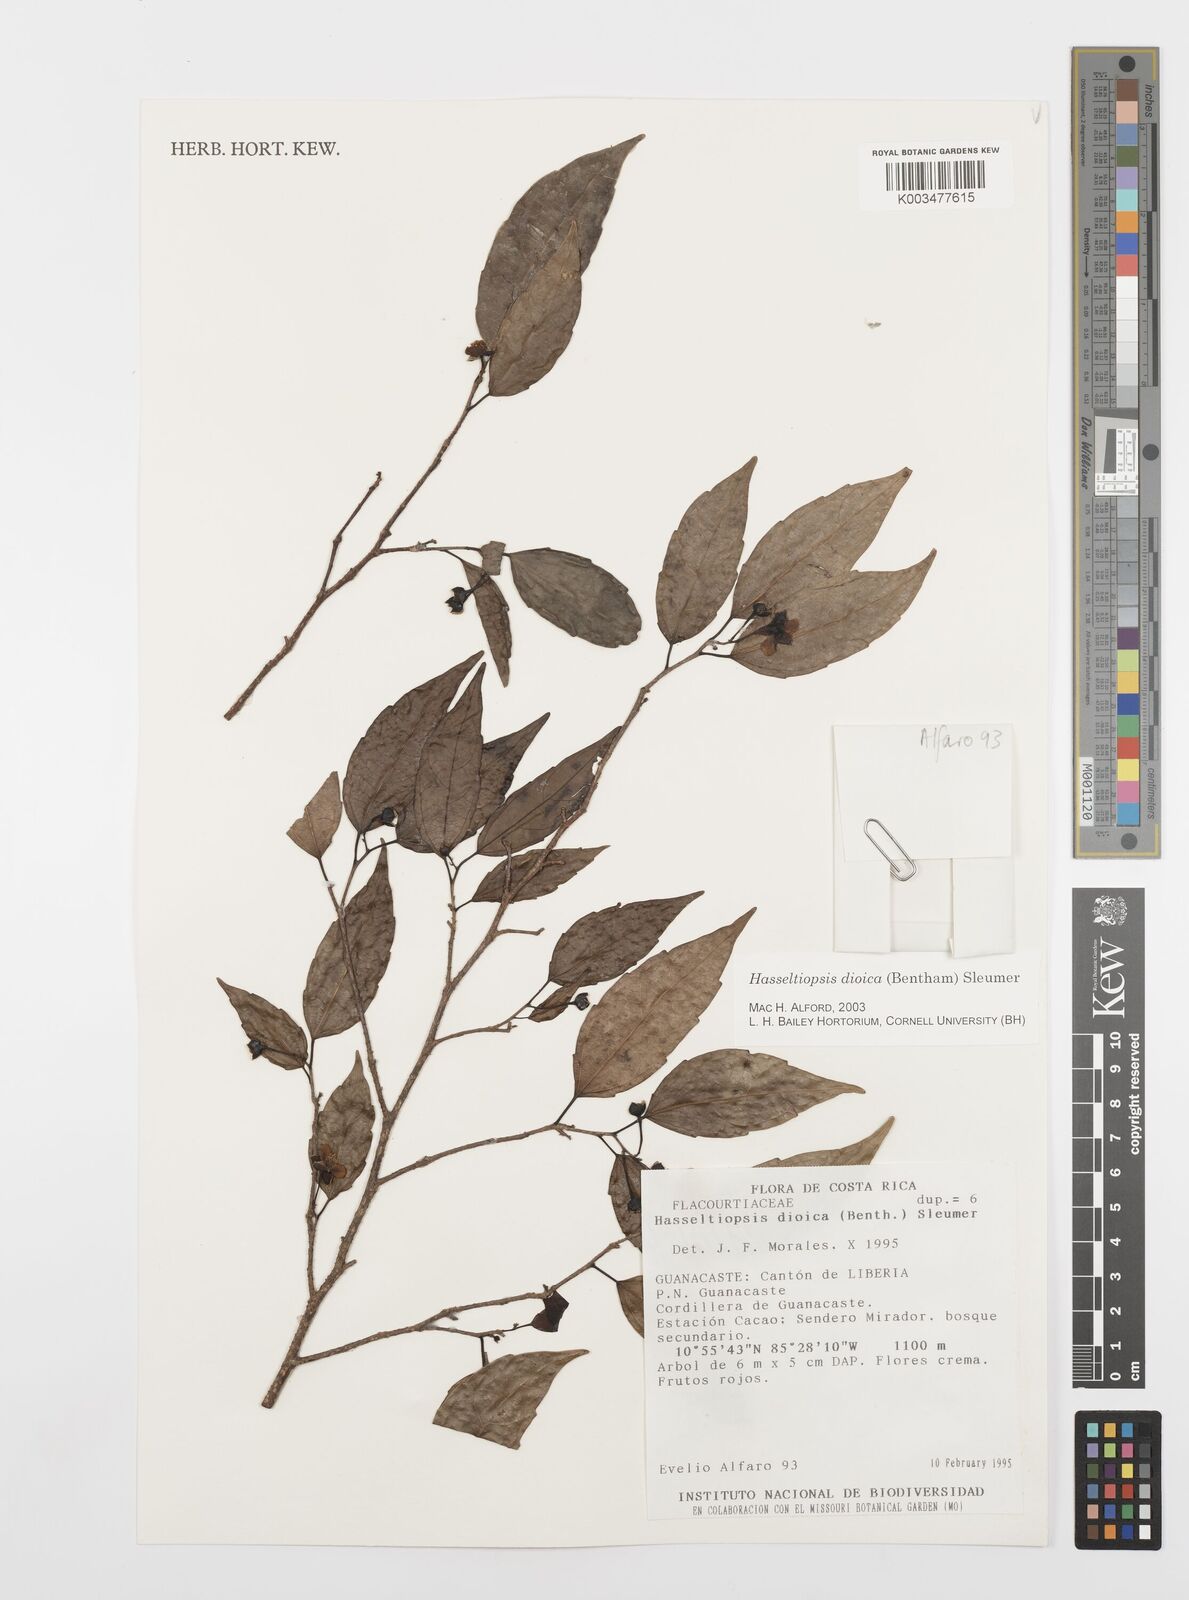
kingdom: Plantae
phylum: Tracheophyta
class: Magnoliopsida
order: Malpighiales
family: Salicaceae
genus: Hasseltiopsis
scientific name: Hasseltiopsis dioica
